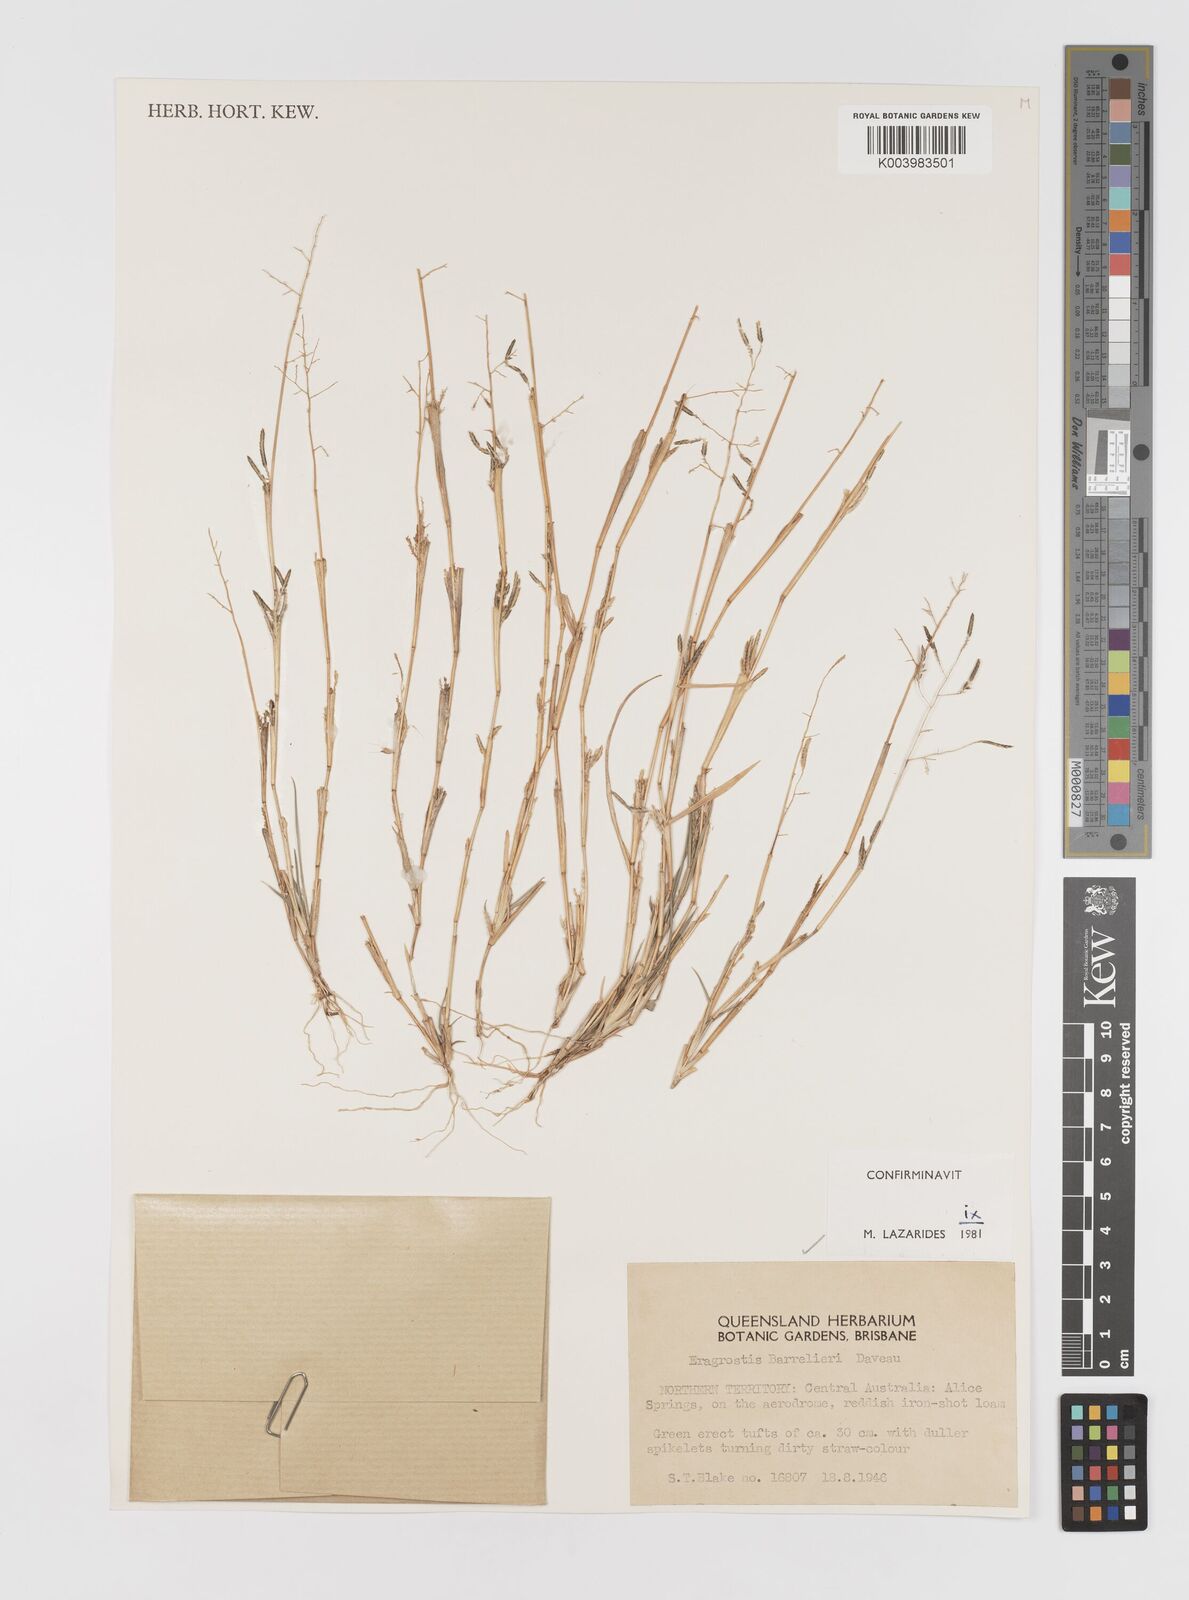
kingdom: Plantae
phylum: Tracheophyta
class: Liliopsida
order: Poales
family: Poaceae
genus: Eragrostis
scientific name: Eragrostis barrelieri
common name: Mediterranean lovegrass
